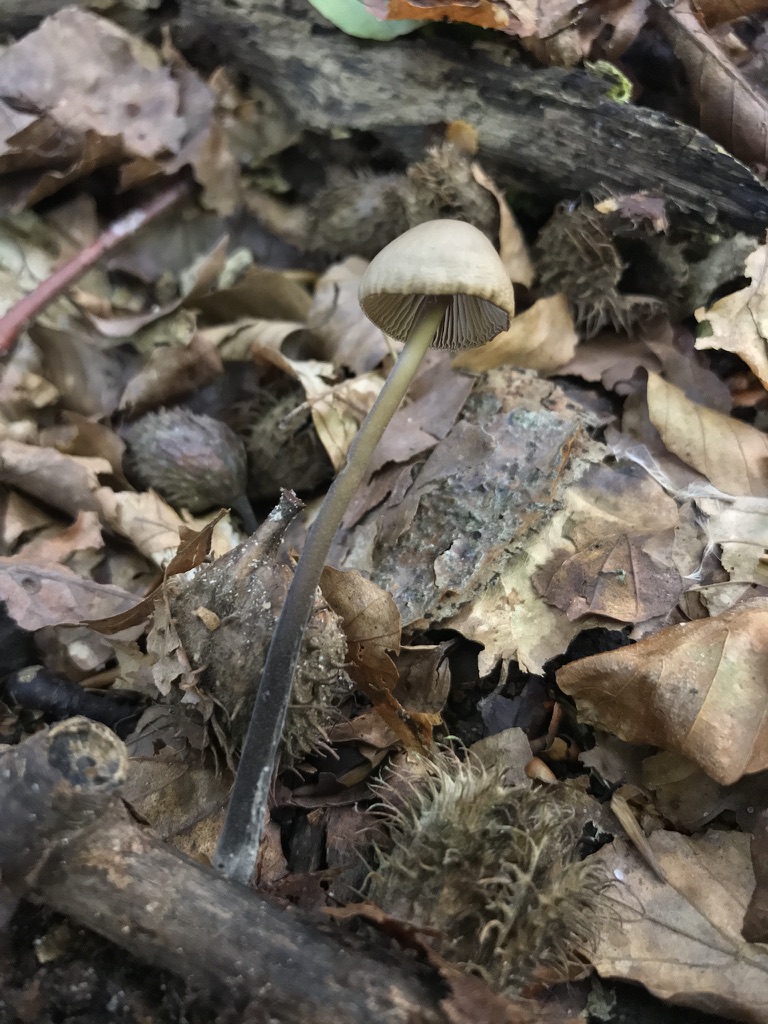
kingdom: Fungi
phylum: Basidiomycota
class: Agaricomycetes
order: Agaricales
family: Omphalotaceae
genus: Mycetinis
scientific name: Mycetinis alliaceus
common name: stor løghat
